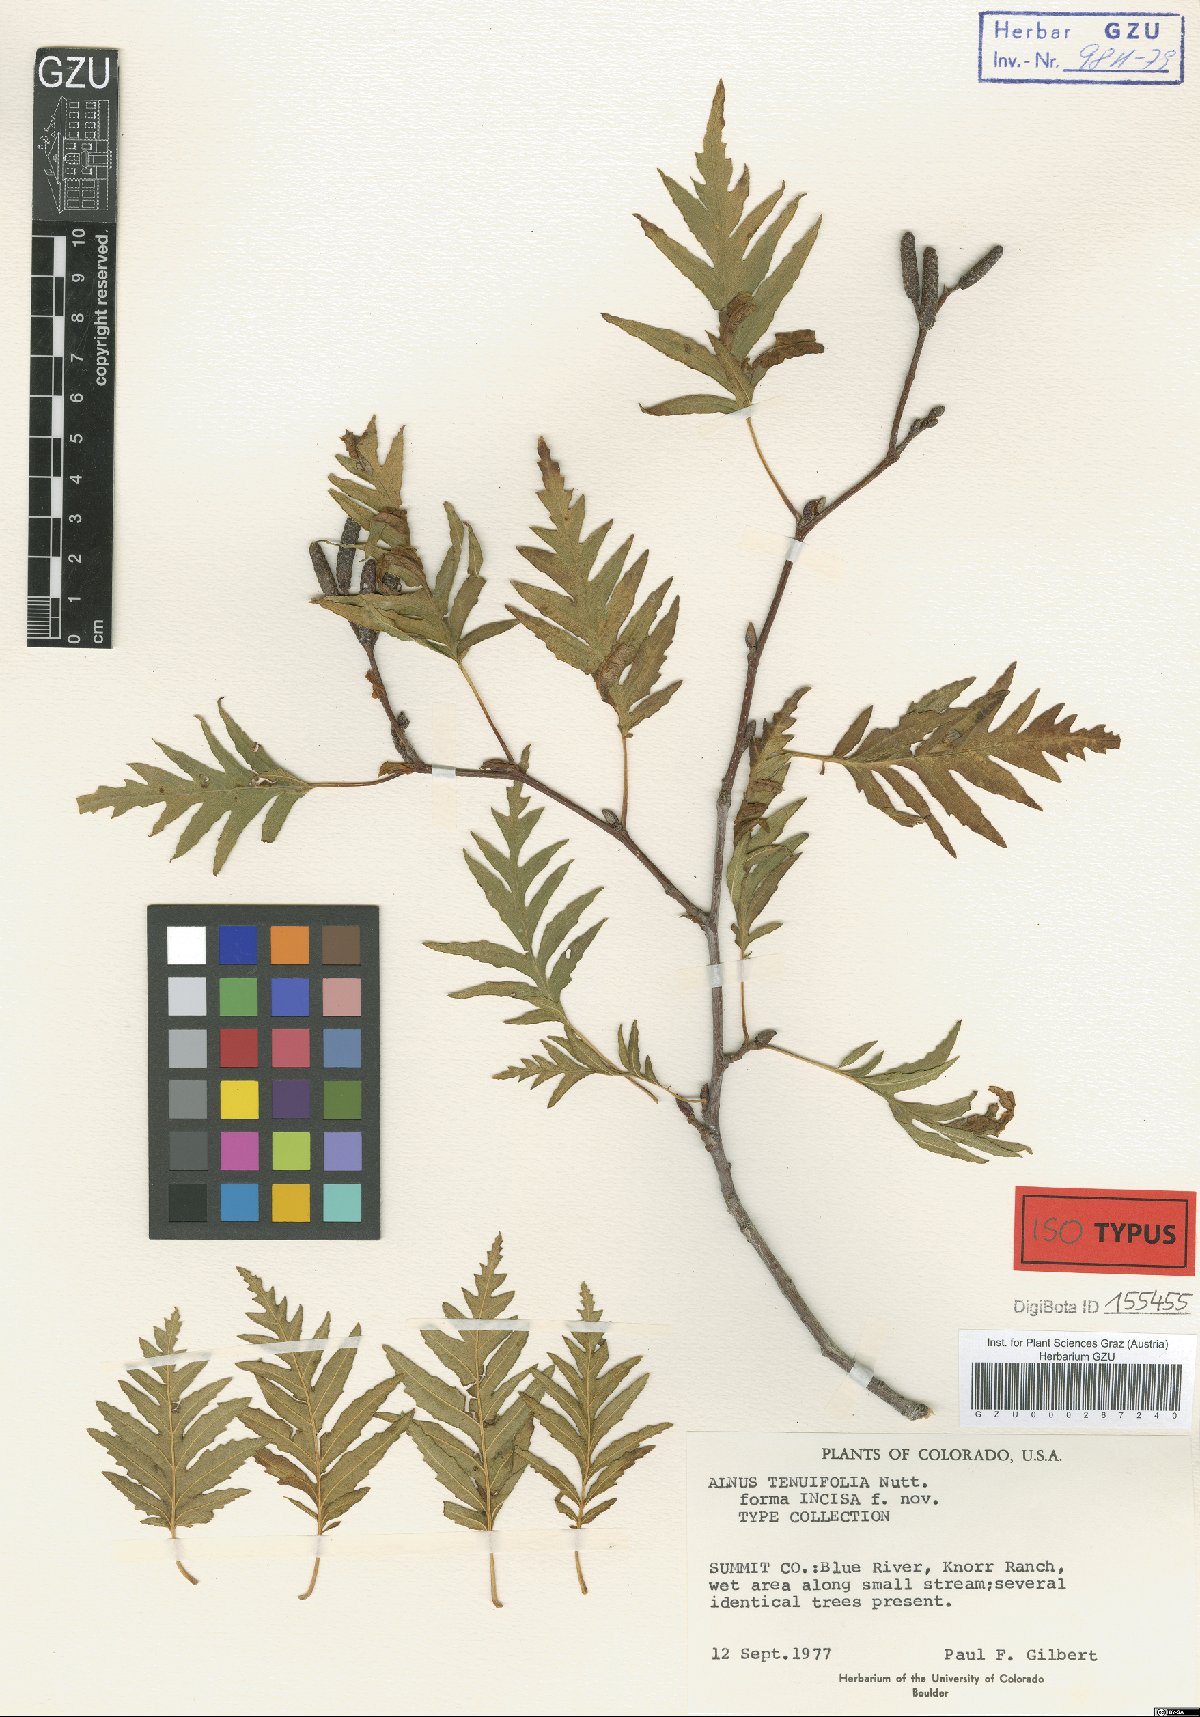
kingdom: Plantae
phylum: Tracheophyta
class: Magnoliopsida
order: Fagales
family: Betulaceae
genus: Alnus
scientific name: Alnus incana
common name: Grey alder
